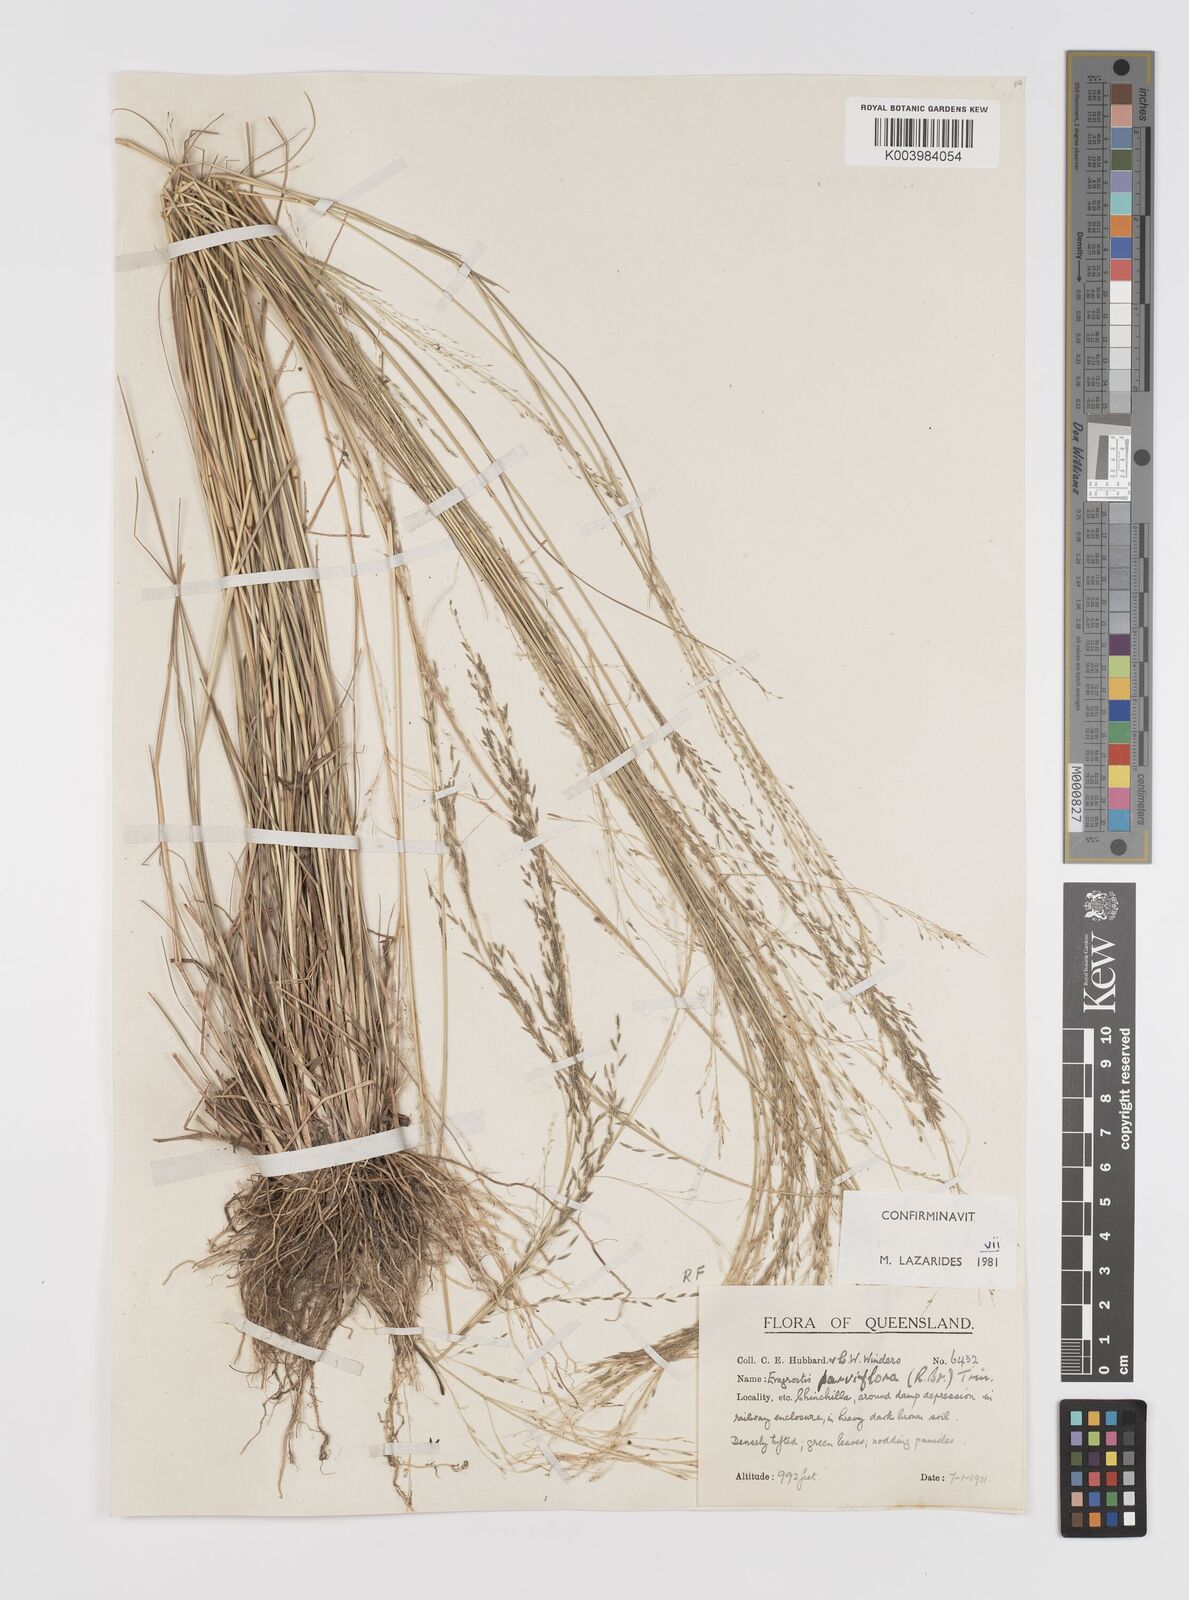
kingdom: Plantae
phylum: Tracheophyta
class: Liliopsida
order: Poales
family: Poaceae
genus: Eragrostis
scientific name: Eragrostis parviflora
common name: Weeping love-grass
